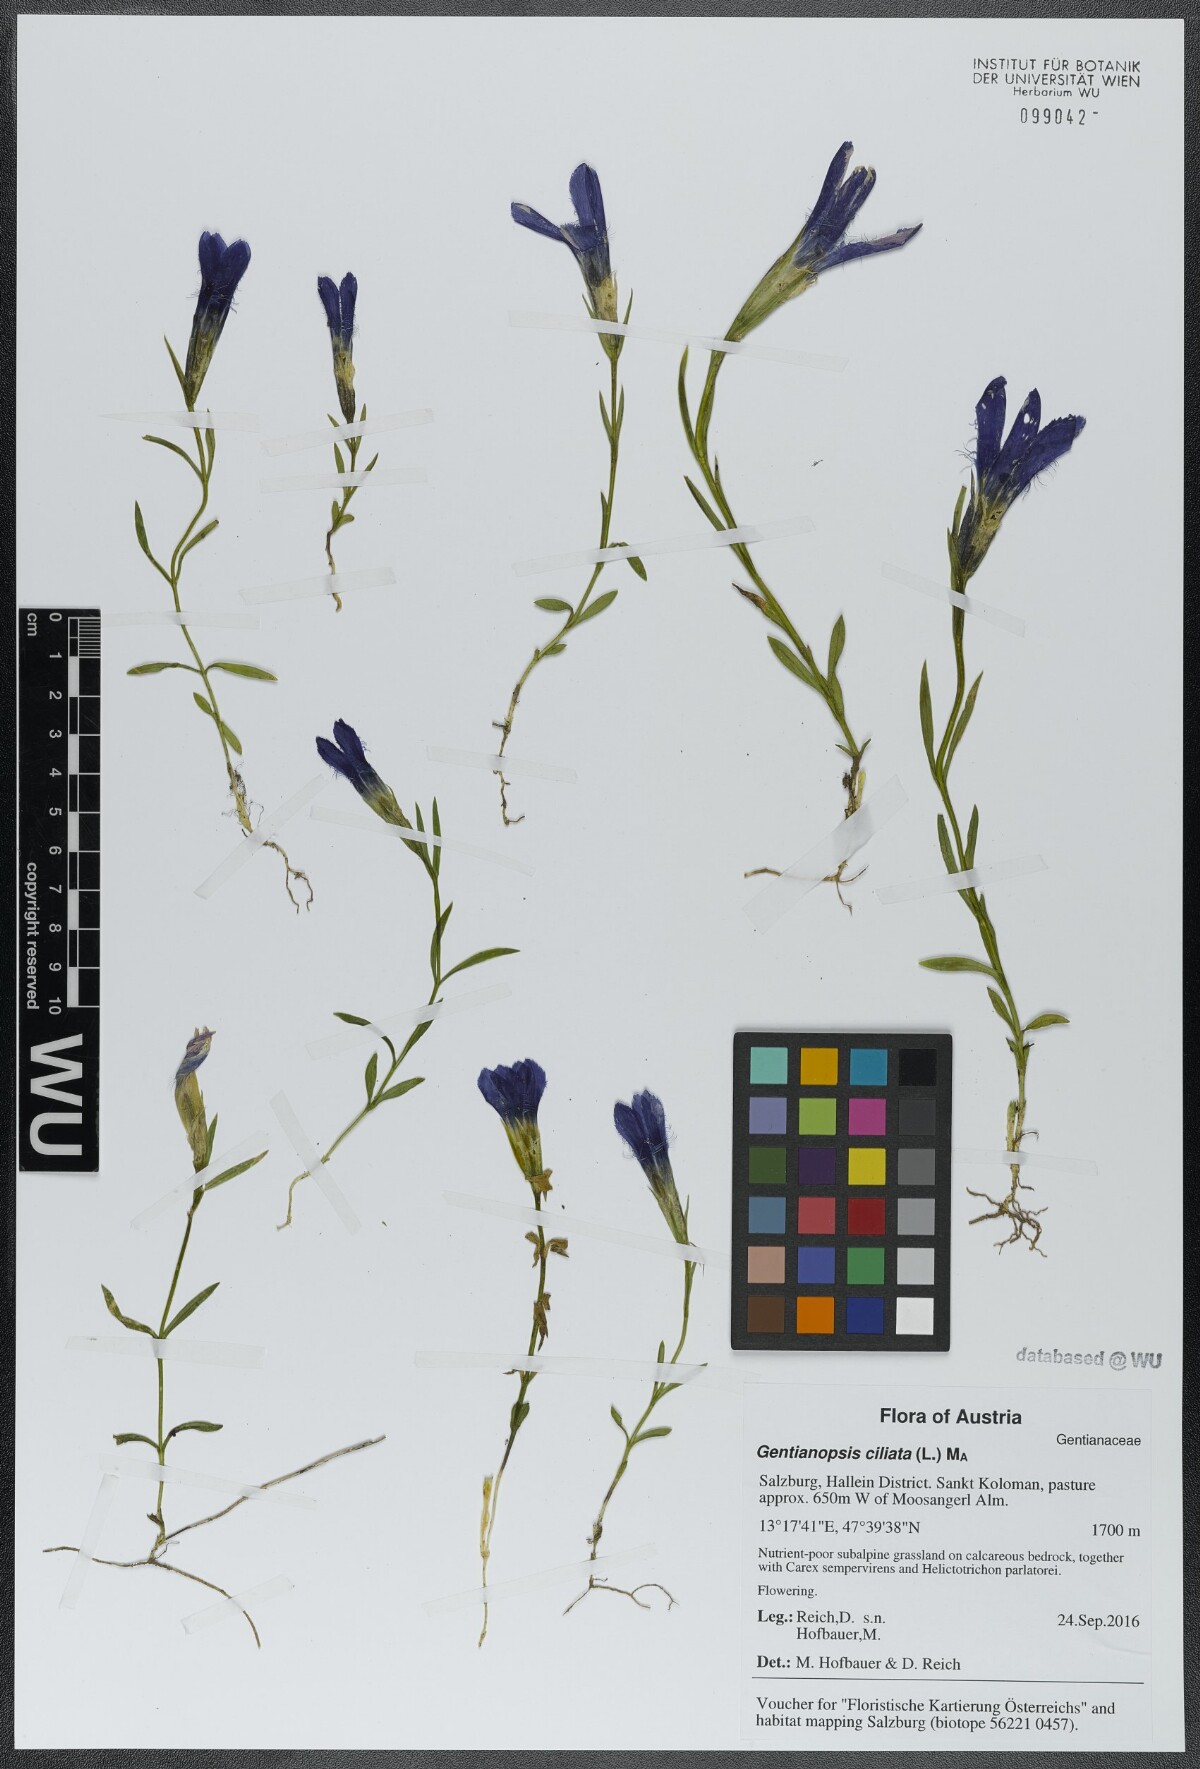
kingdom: Plantae
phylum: Tracheophyta
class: Magnoliopsida
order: Gentianales
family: Gentianaceae
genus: Gentianopsis
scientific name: Gentianopsis ciliata
